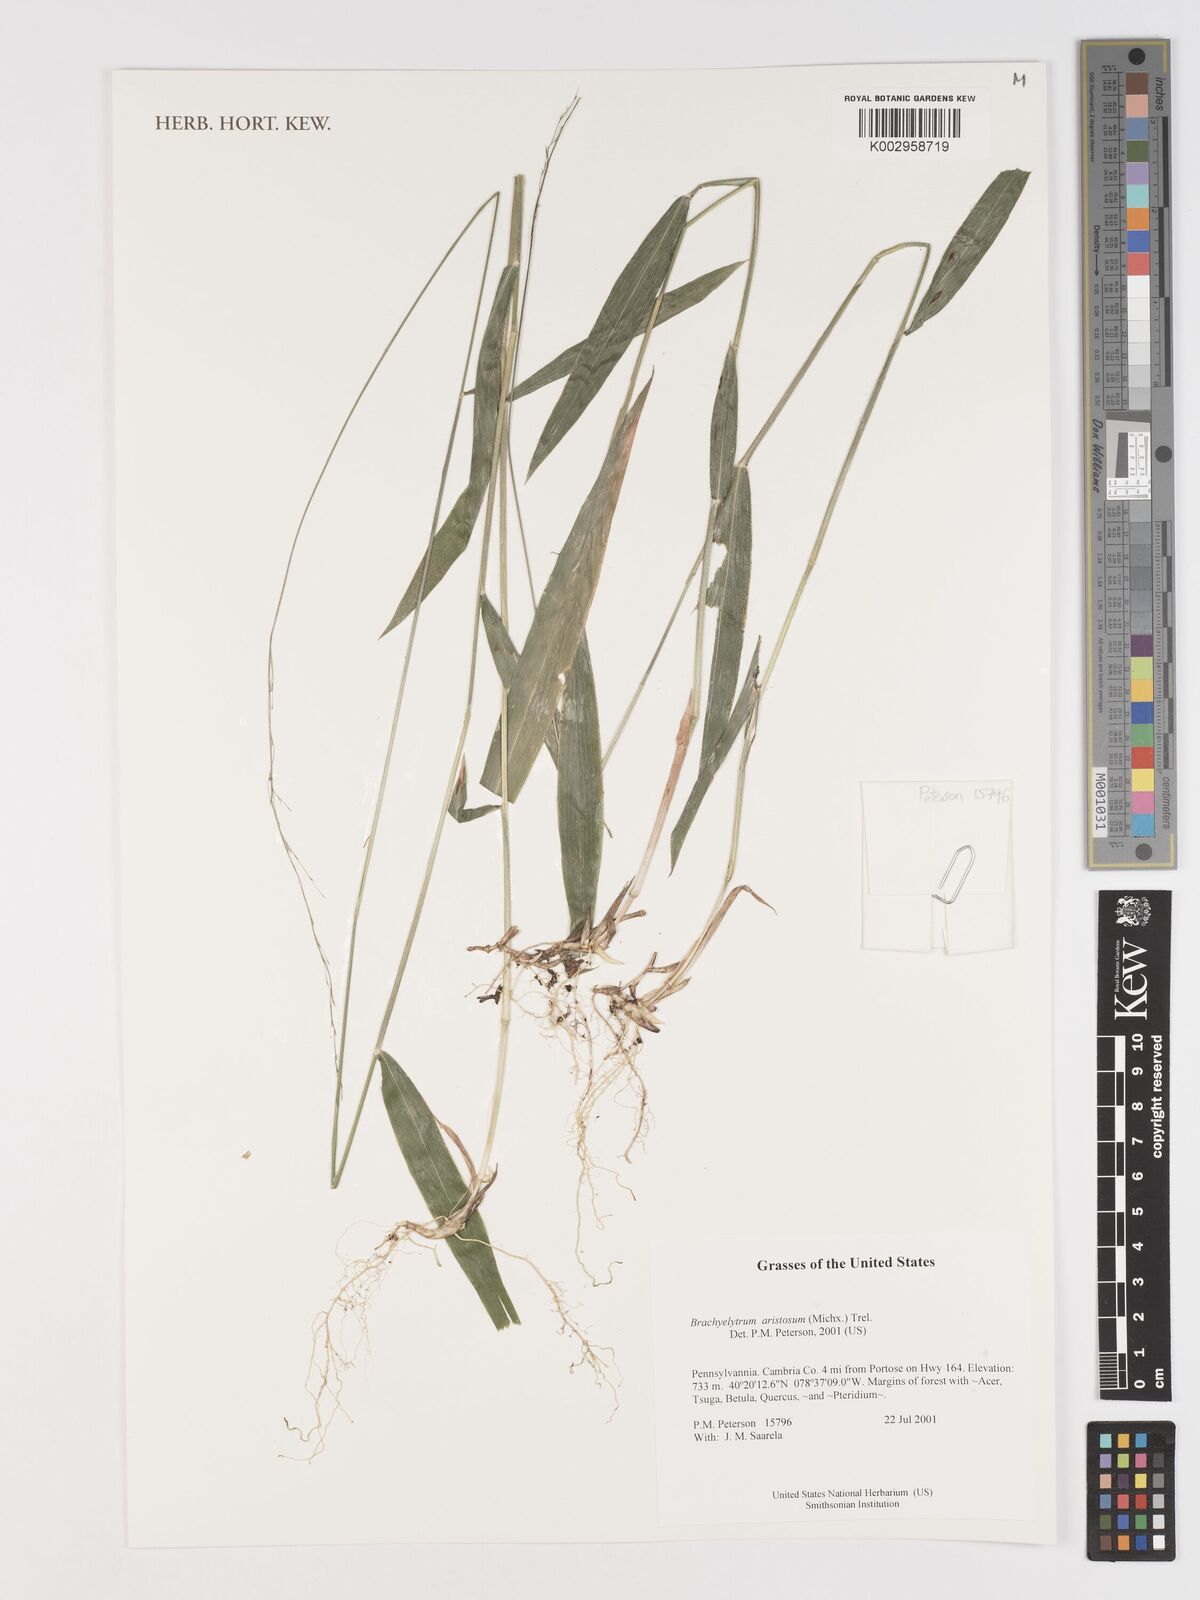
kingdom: Plantae
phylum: Tracheophyta
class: Liliopsida
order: Poales
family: Poaceae
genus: Brachyelytrum
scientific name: Brachyelytrum aristosum
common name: Northern shorthusk
